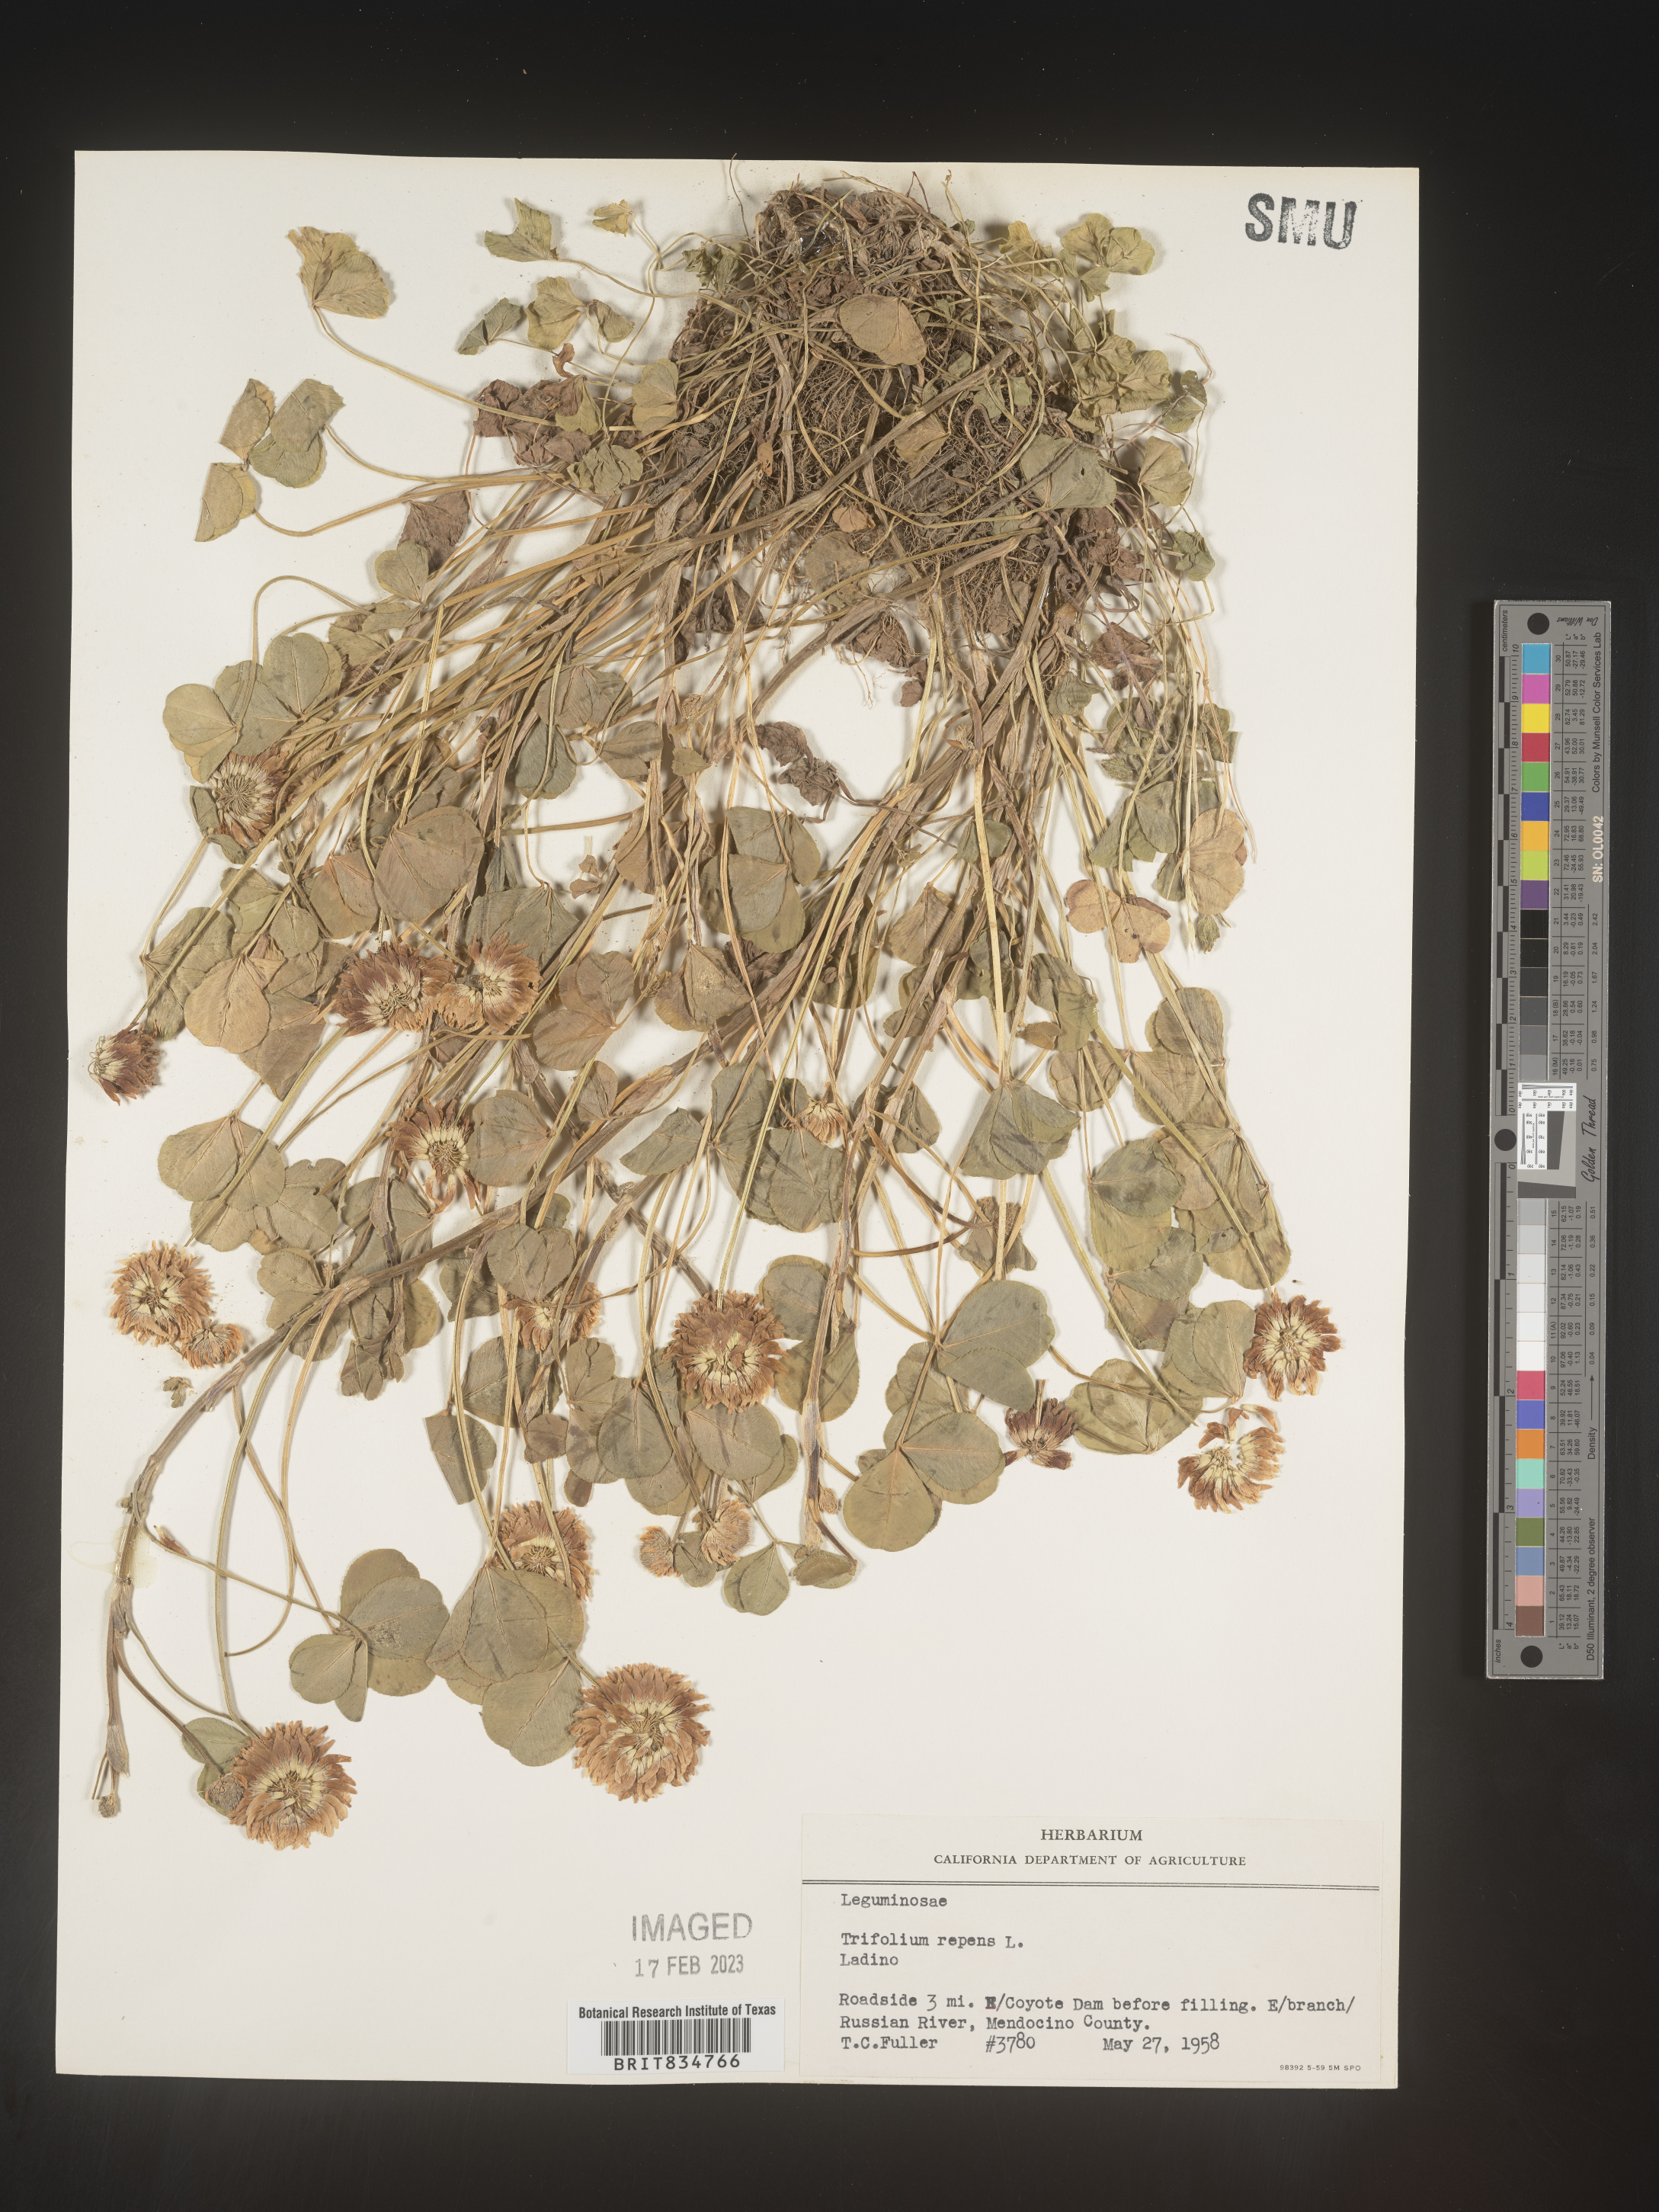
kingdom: Plantae
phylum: Tracheophyta
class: Magnoliopsida
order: Fabales
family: Fabaceae
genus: Trifolium
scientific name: Trifolium repens
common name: White clover
